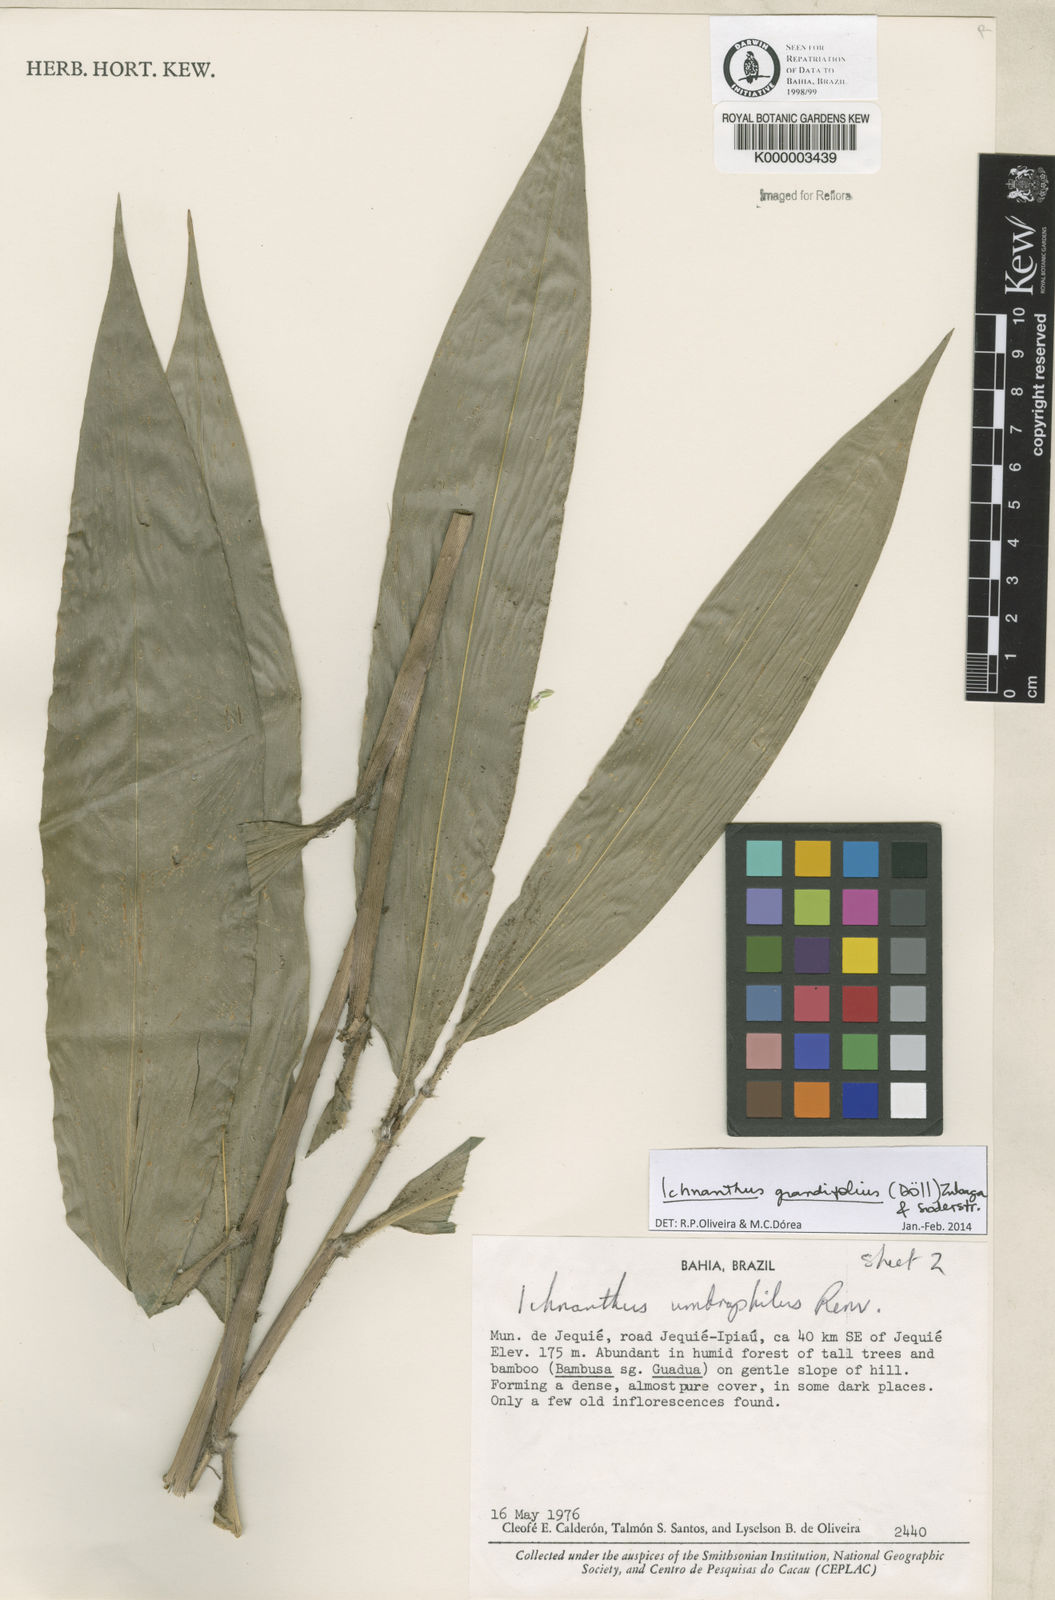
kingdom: Plantae
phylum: Tracheophyta
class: Liliopsida
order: Poales
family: Poaceae
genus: Oedochloa
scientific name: Oedochloa grandifolia
